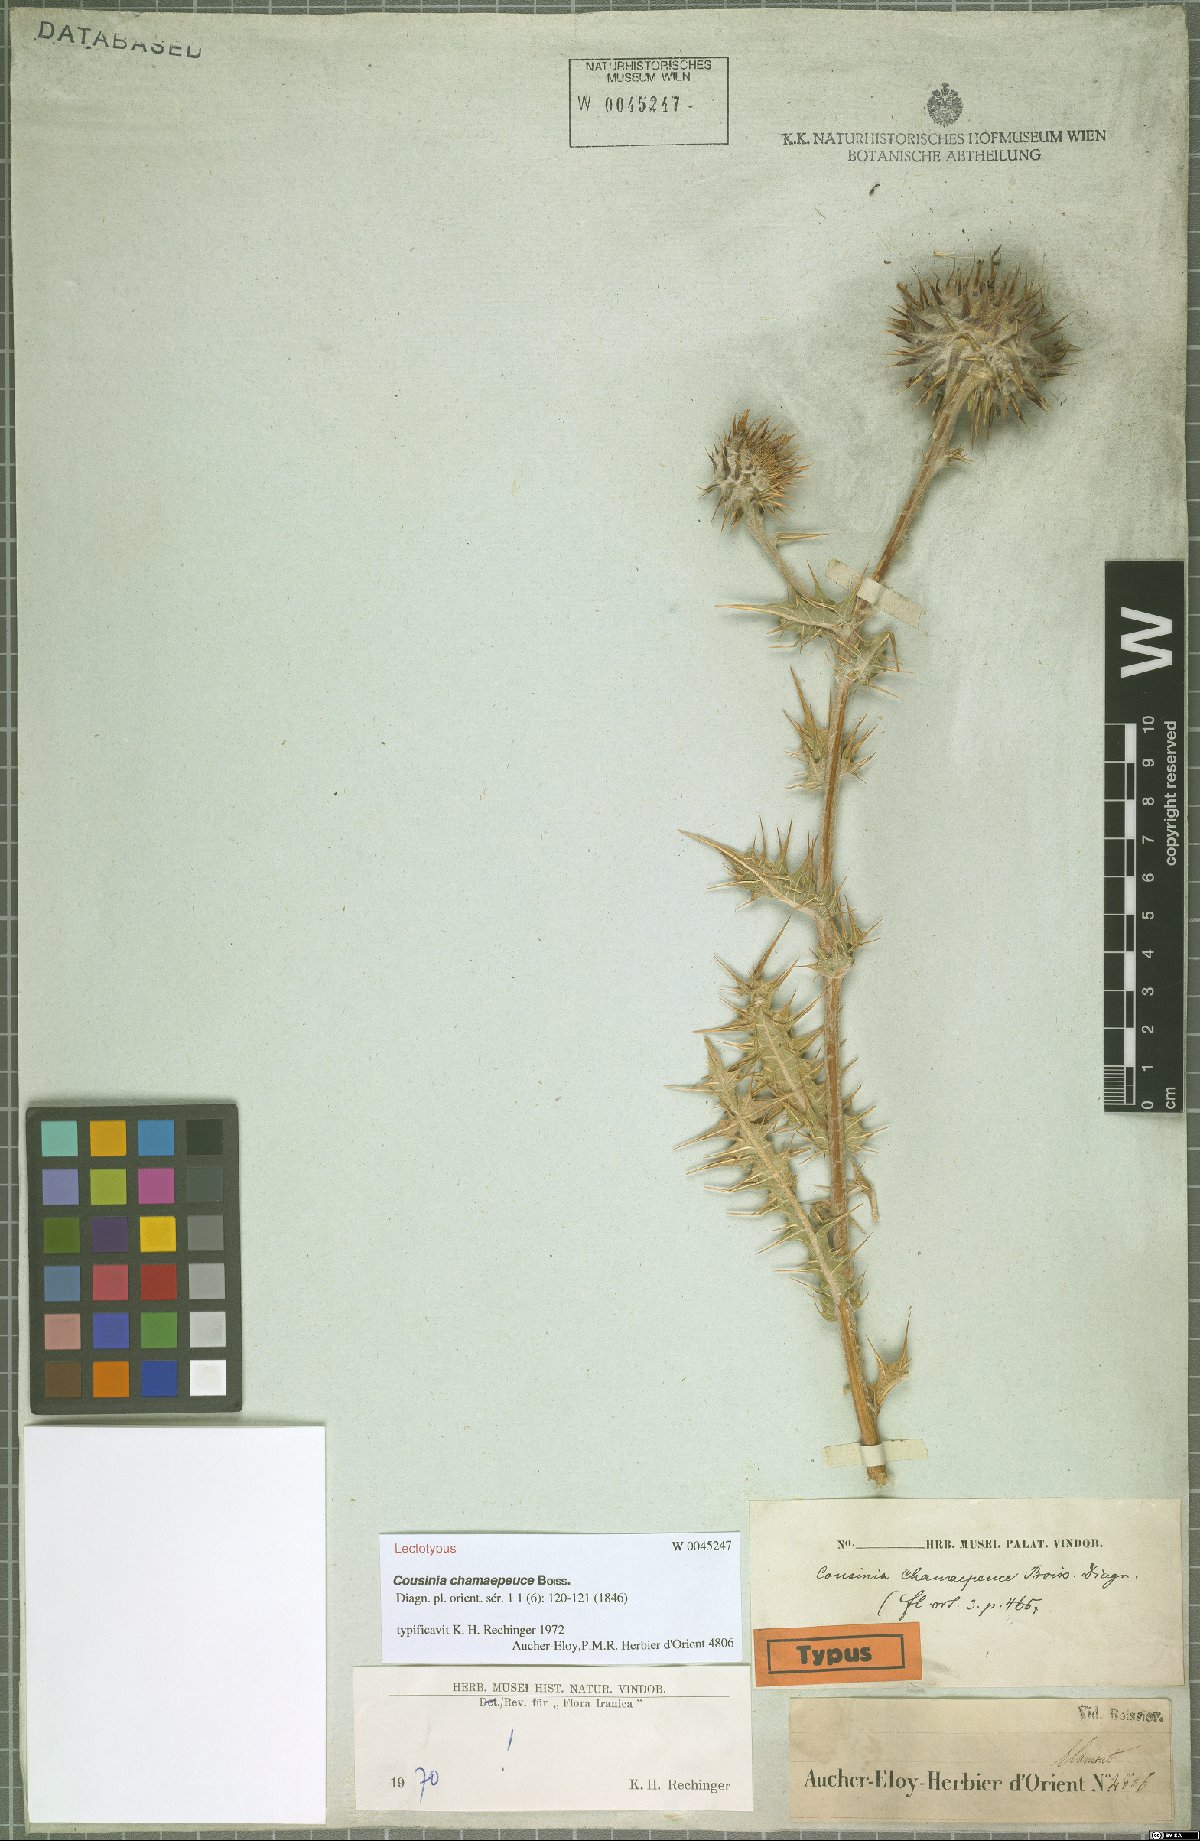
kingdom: Plantae
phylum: Tracheophyta
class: Magnoliopsida
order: Asterales
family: Asteraceae
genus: Cousinia
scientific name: Cousinia chamaepeuce
